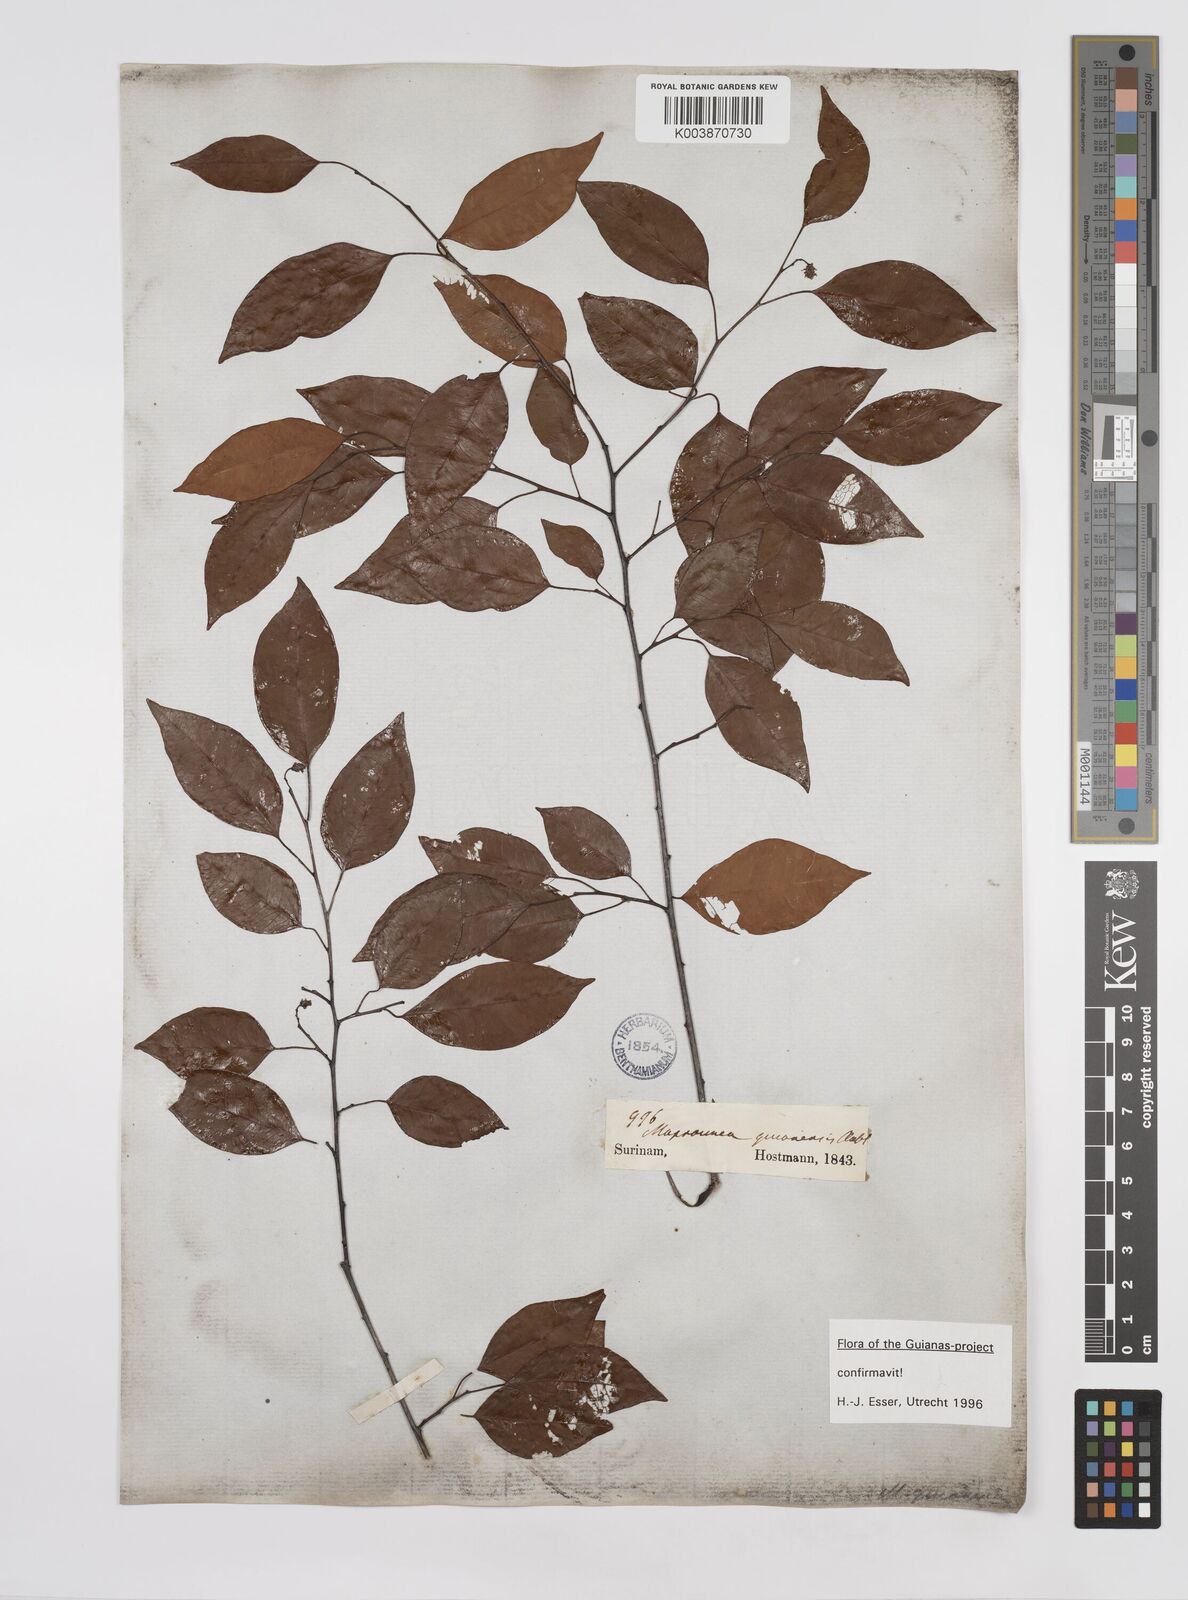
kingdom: Plantae
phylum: Tracheophyta
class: Magnoliopsida
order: Malpighiales
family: Euphorbiaceae
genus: Maprounea
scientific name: Maprounea guianensis
